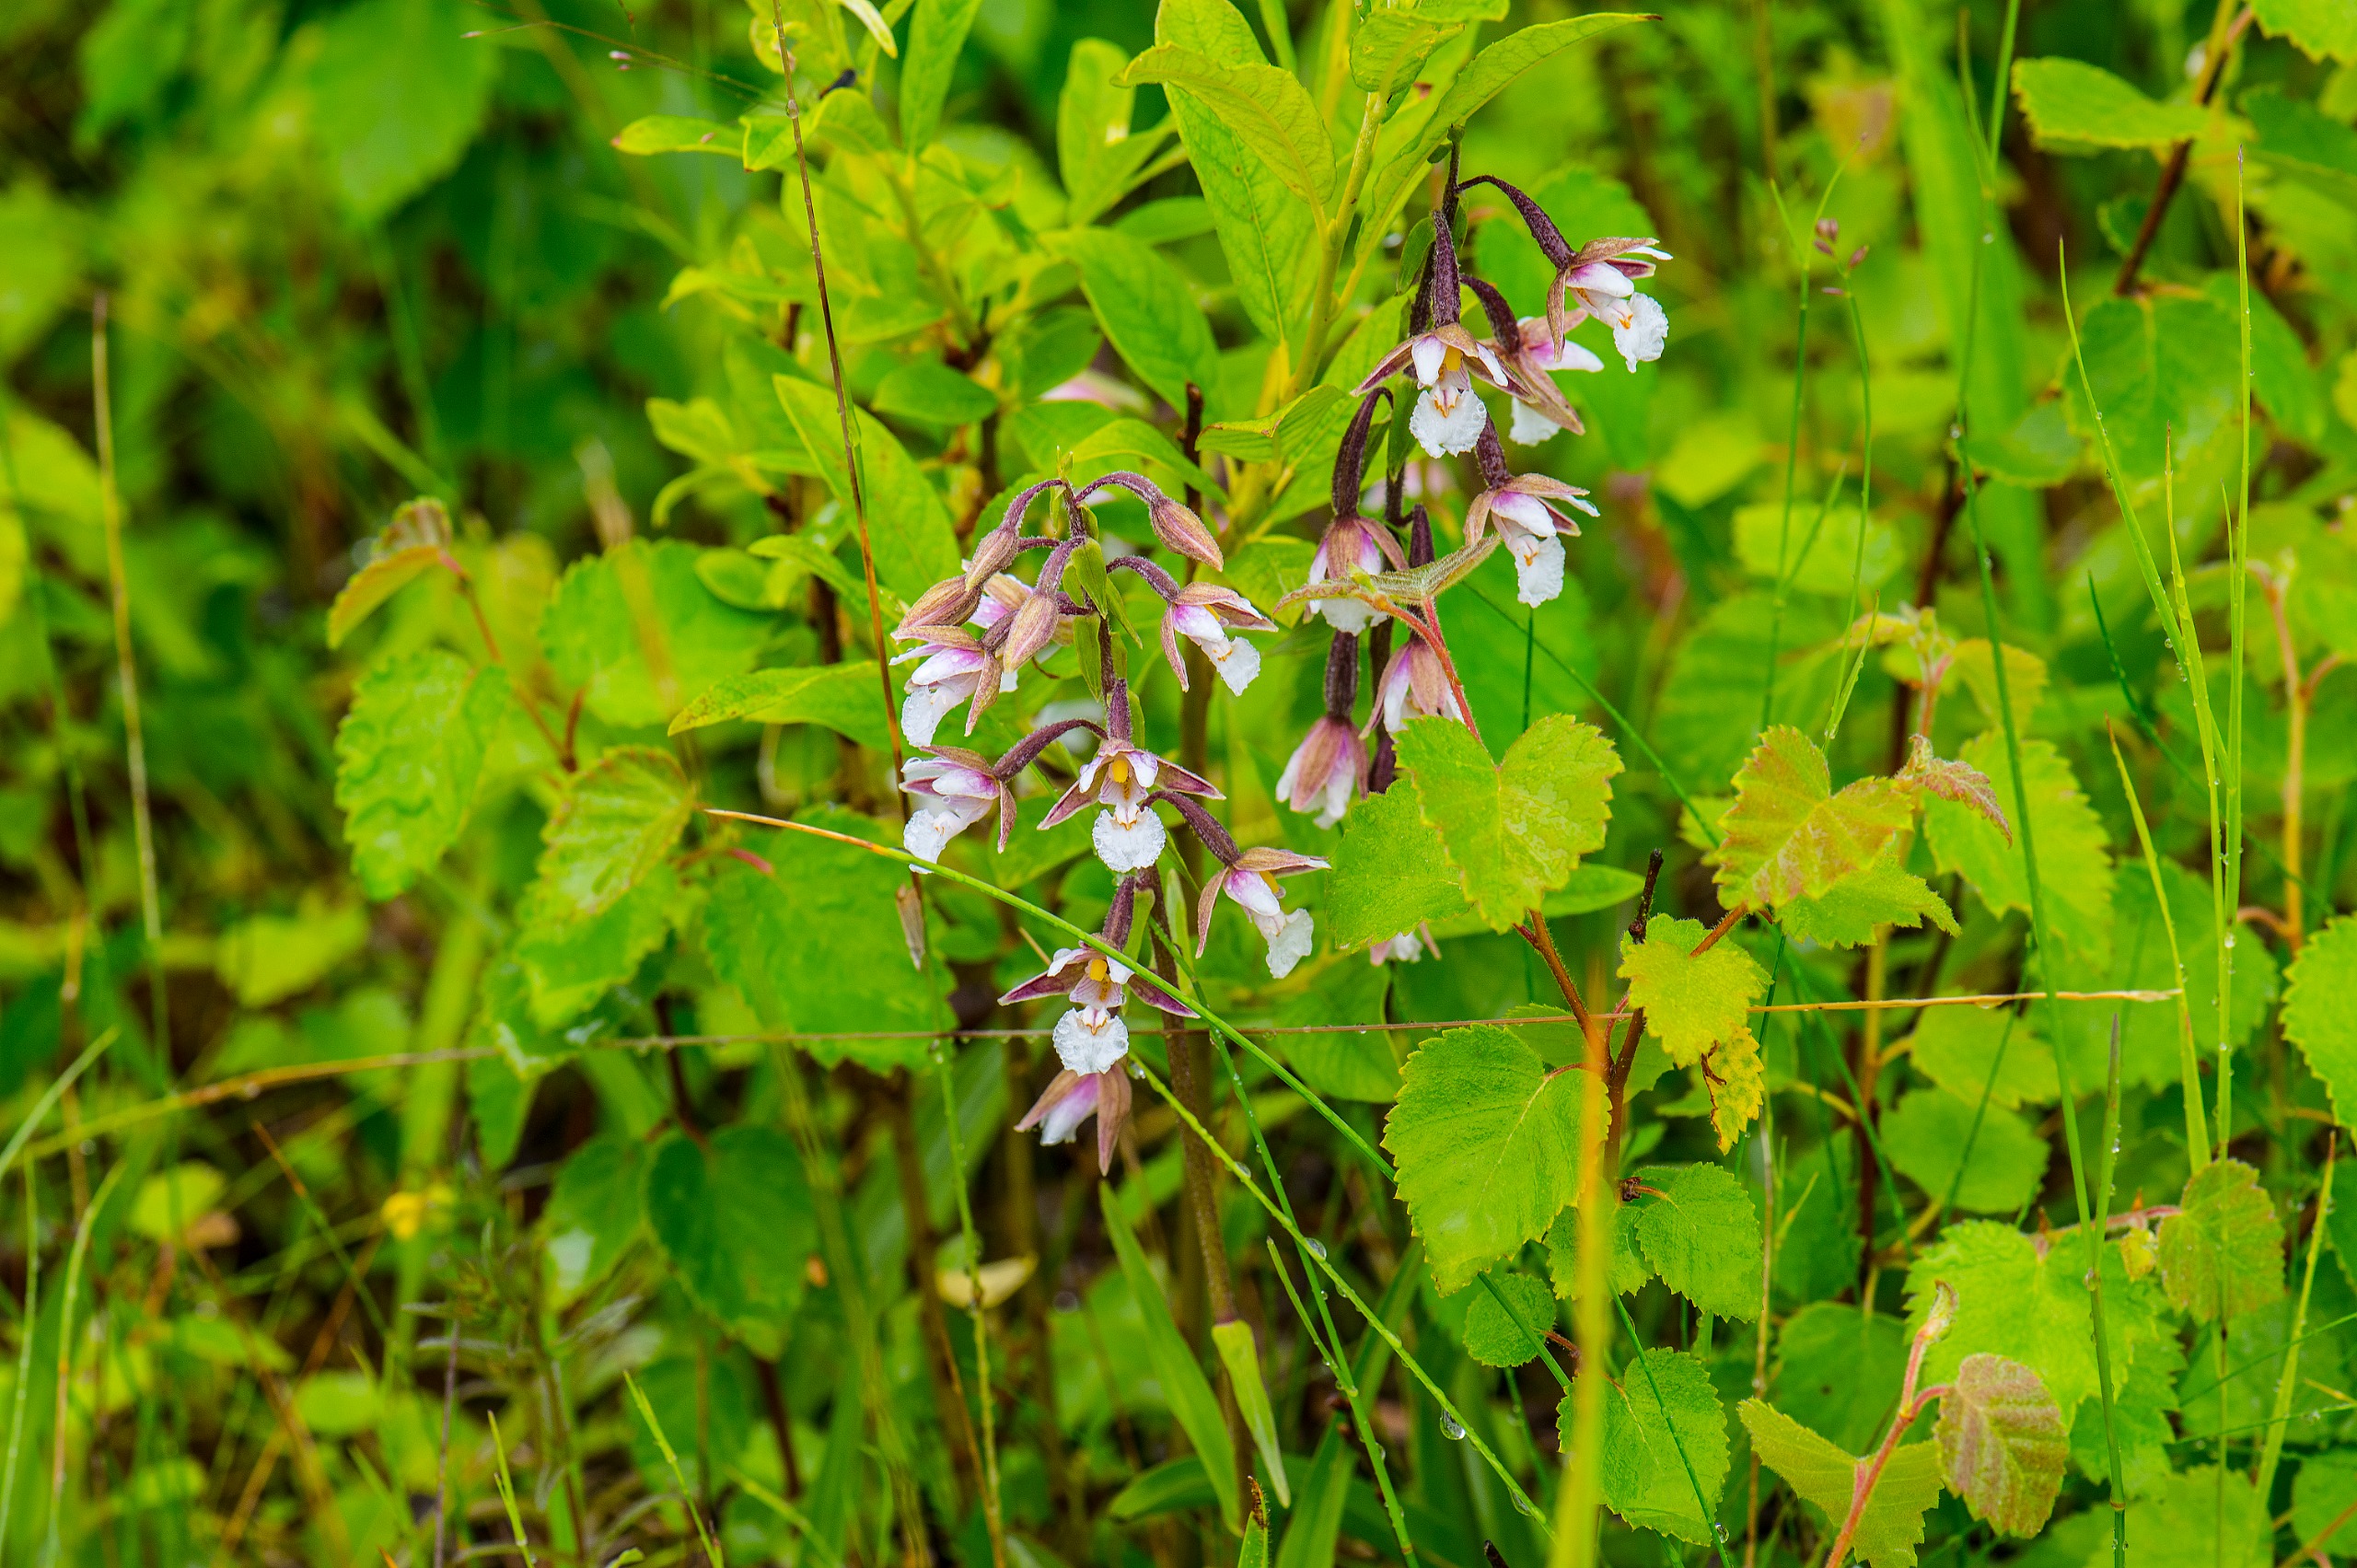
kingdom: Plantae
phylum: Tracheophyta
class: Liliopsida
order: Asparagales
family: Orchidaceae
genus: Epipactis
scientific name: Epipactis palustris
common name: Sump-hullæbe
